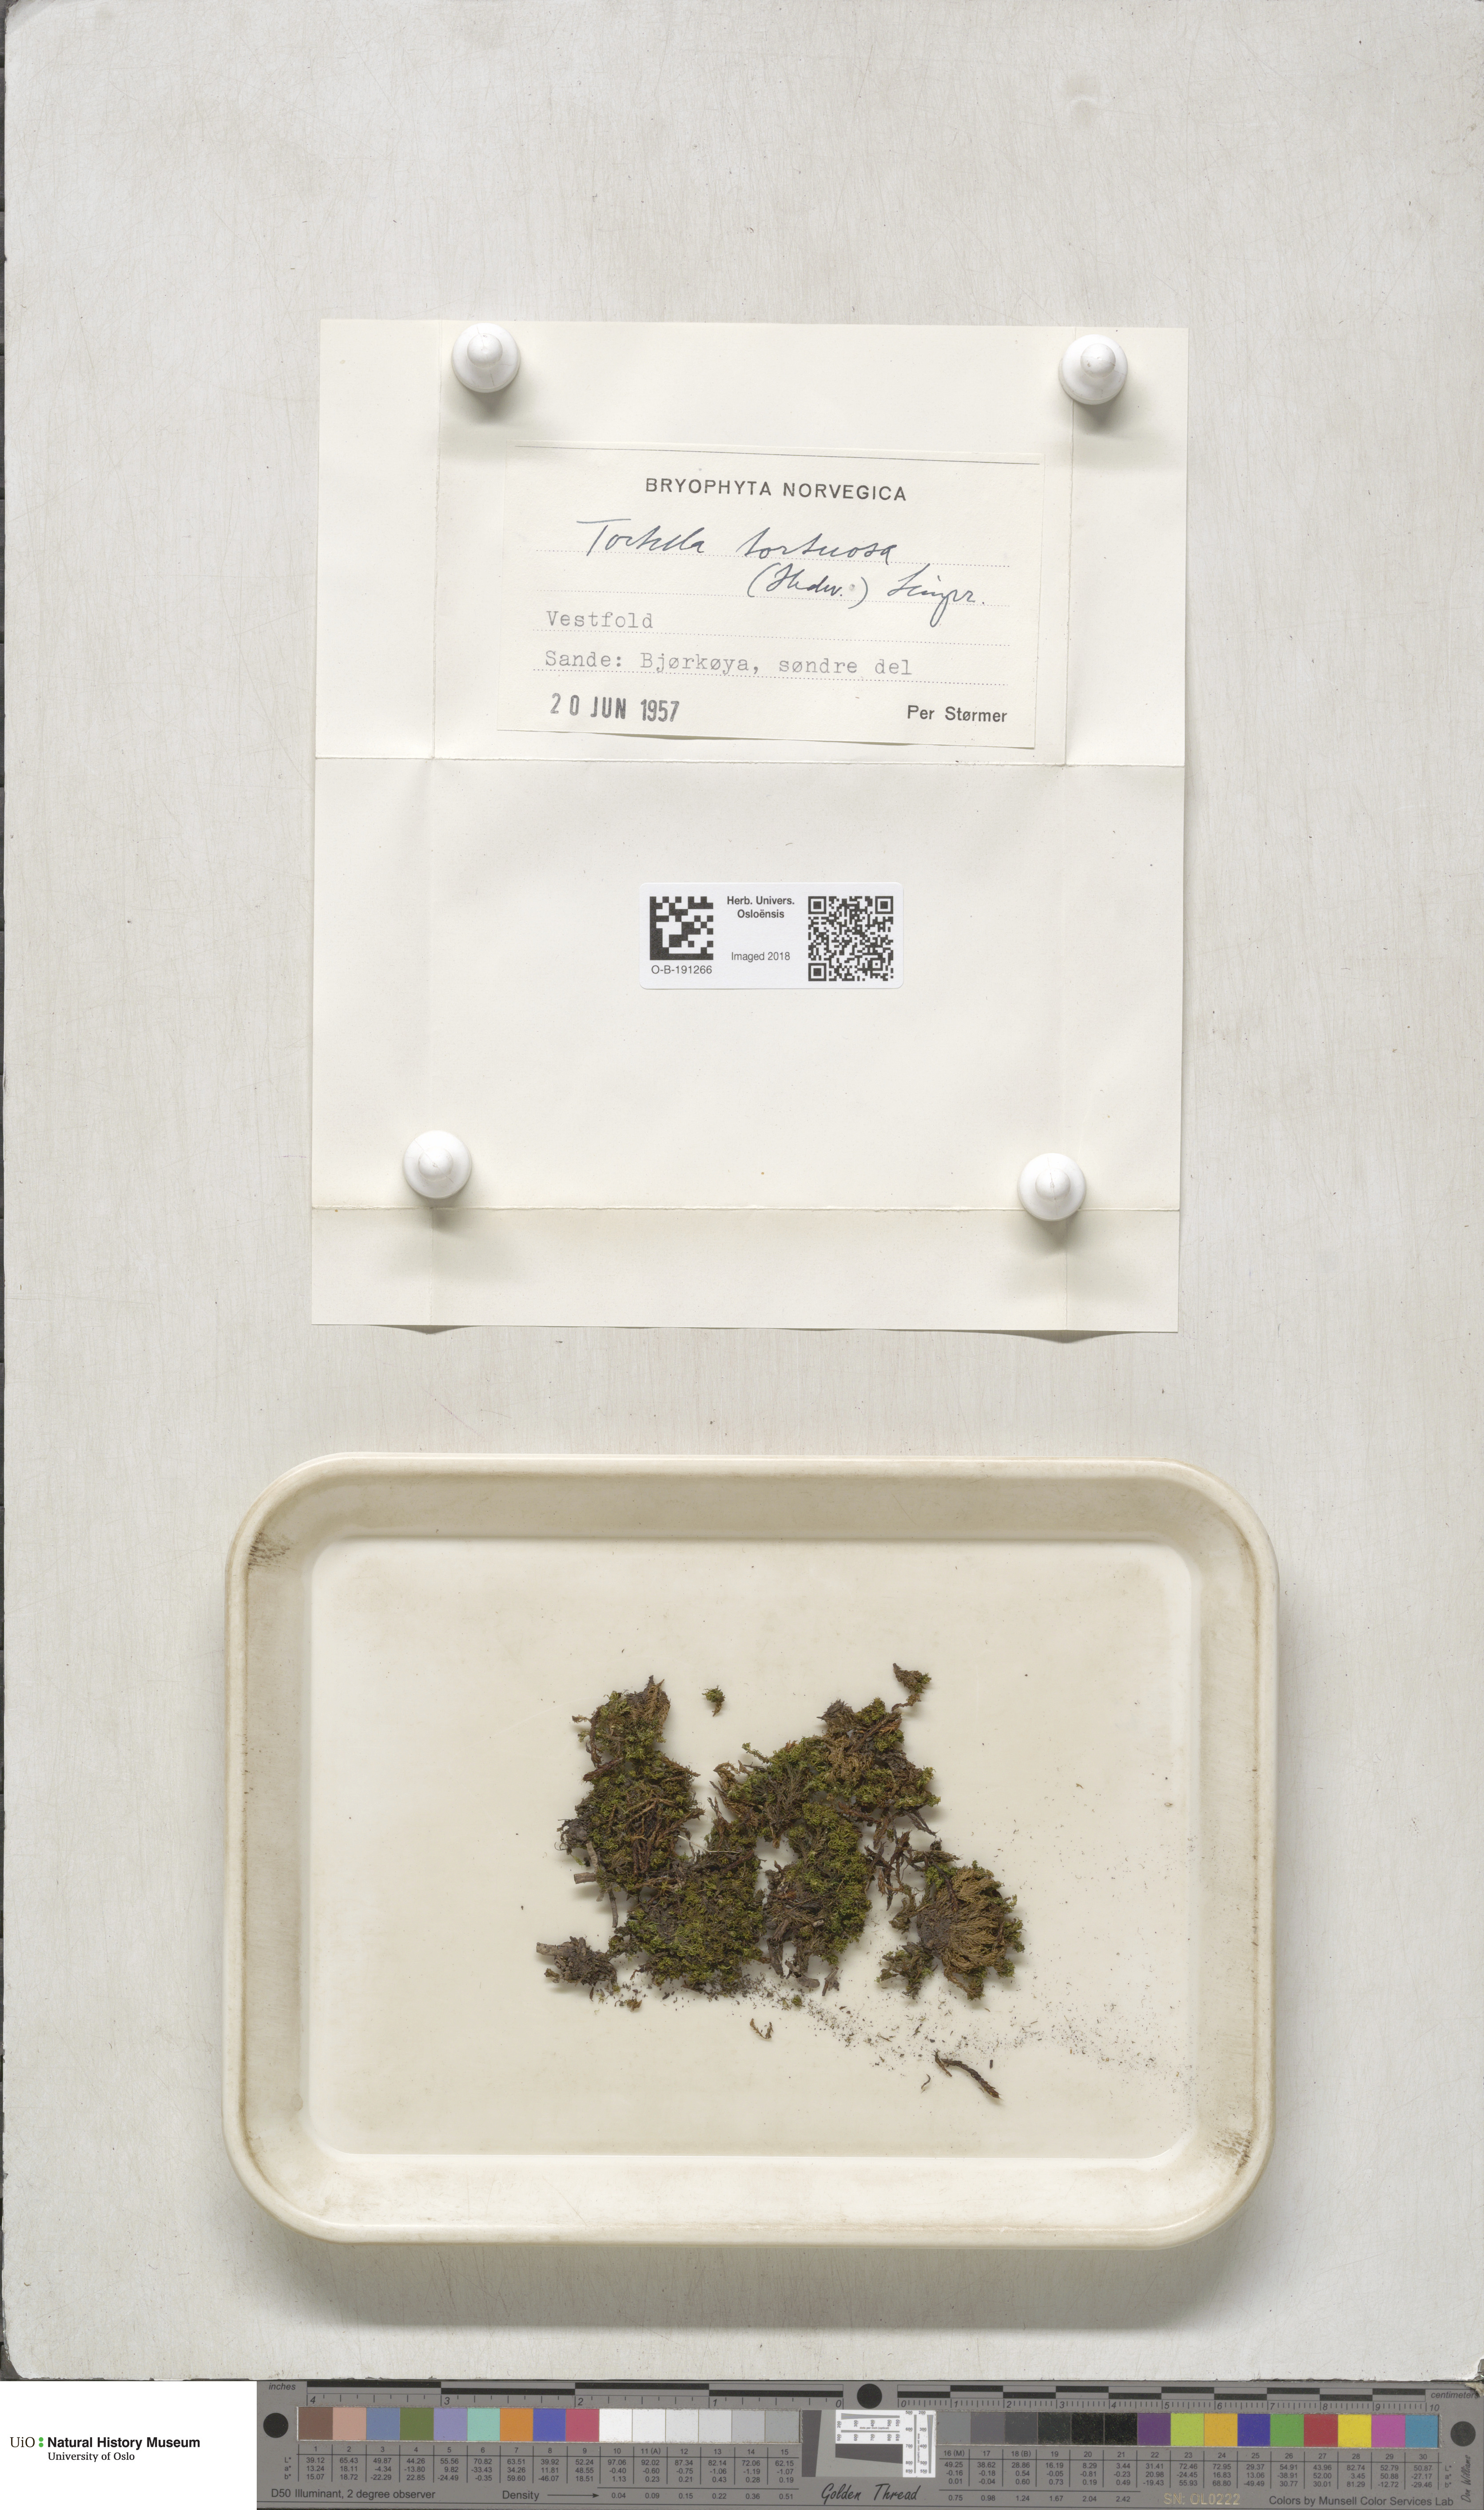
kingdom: Plantae
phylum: Bryophyta
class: Bryopsida
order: Pottiales
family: Pottiaceae
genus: Tortella
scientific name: Tortella tortuosa
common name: Frizzled crisp moss
